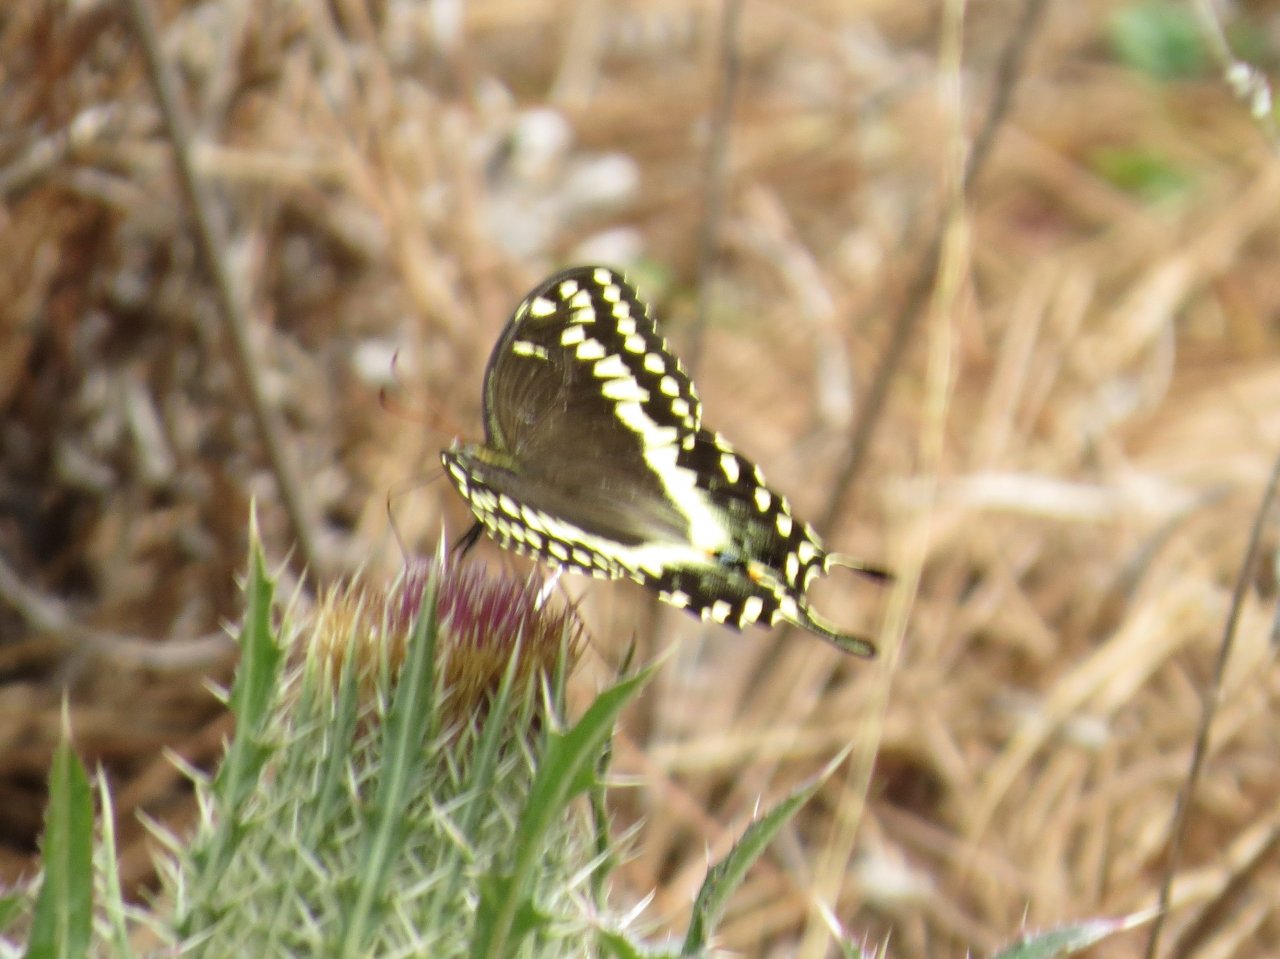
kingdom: Animalia
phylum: Arthropoda
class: Insecta
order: Lepidoptera
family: Papilionidae
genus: Pterourus
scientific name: Pterourus palamedes
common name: Palamedes Swallowtail
